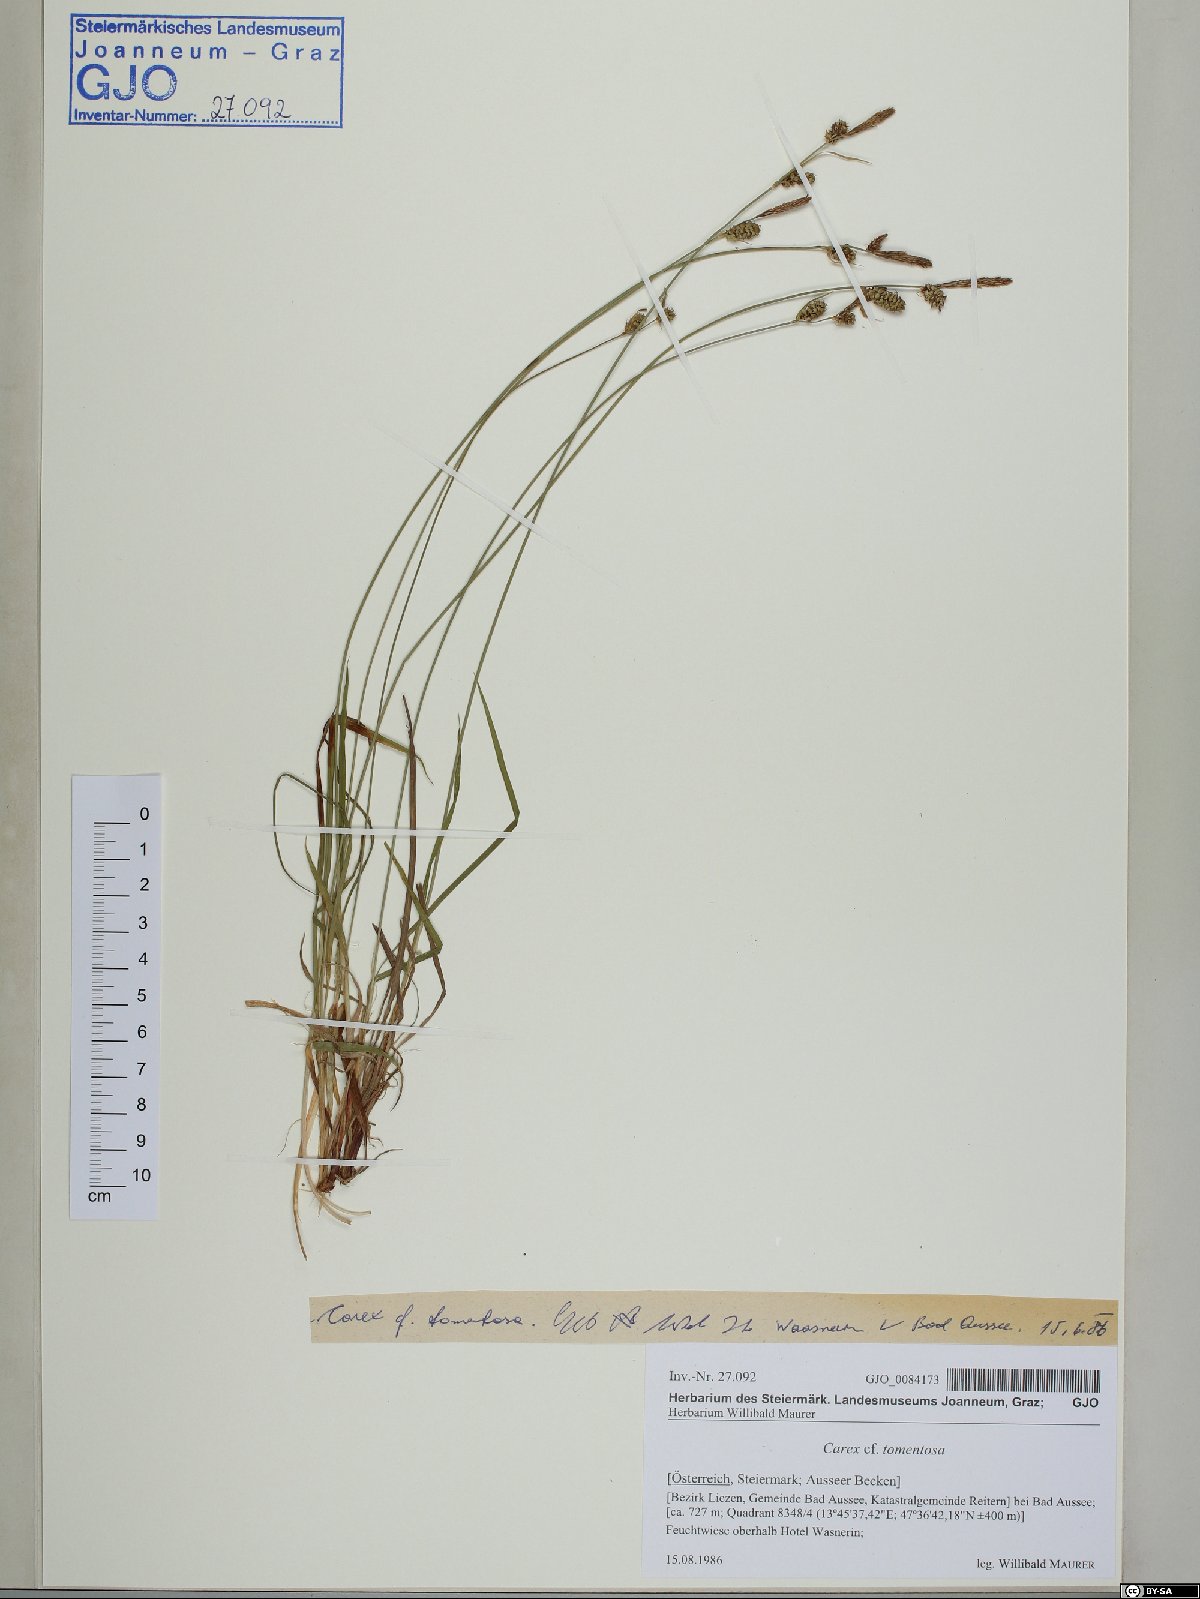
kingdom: Plantae
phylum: Tracheophyta
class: Liliopsida
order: Poales
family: Cyperaceae
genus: Carex
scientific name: Carex tomentosa
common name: Downy-fruited sedge
